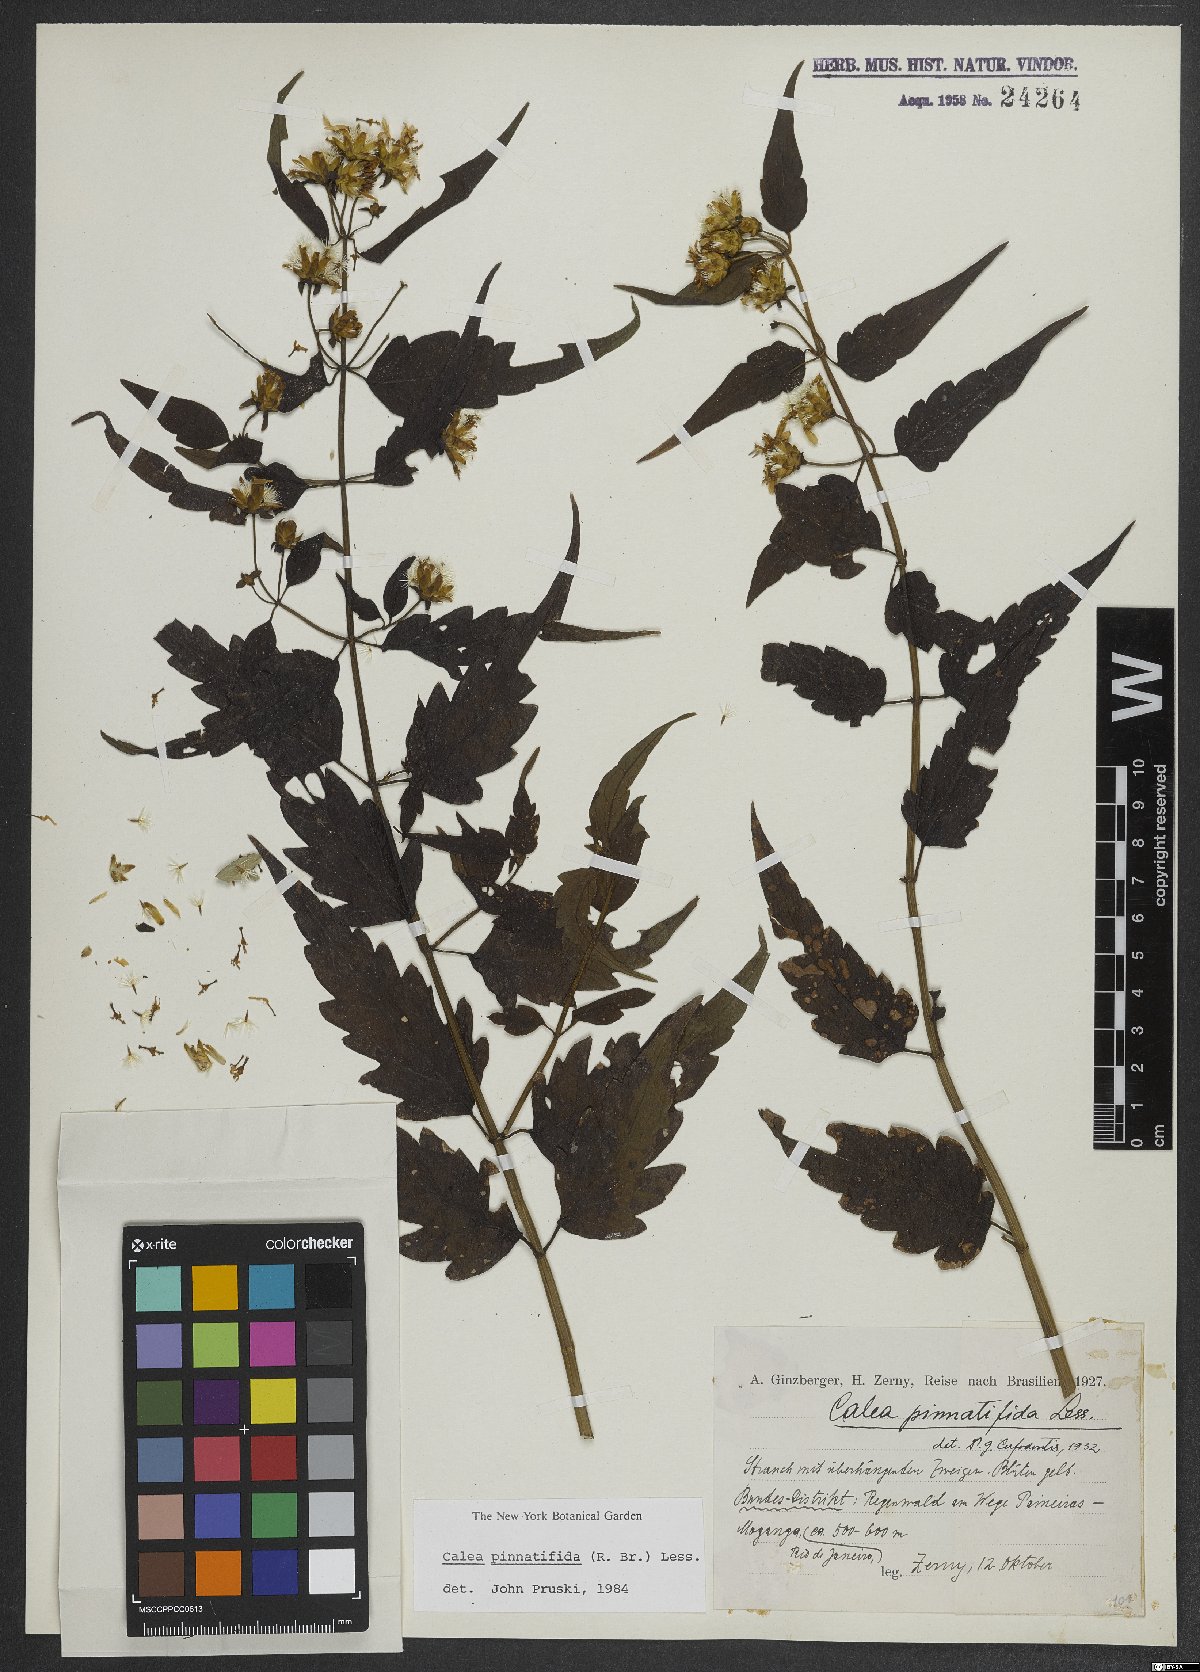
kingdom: Plantae
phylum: Tracheophyta
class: Magnoliopsida
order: Asterales
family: Asteraceae
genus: Calea
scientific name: Calea pinnatifida
